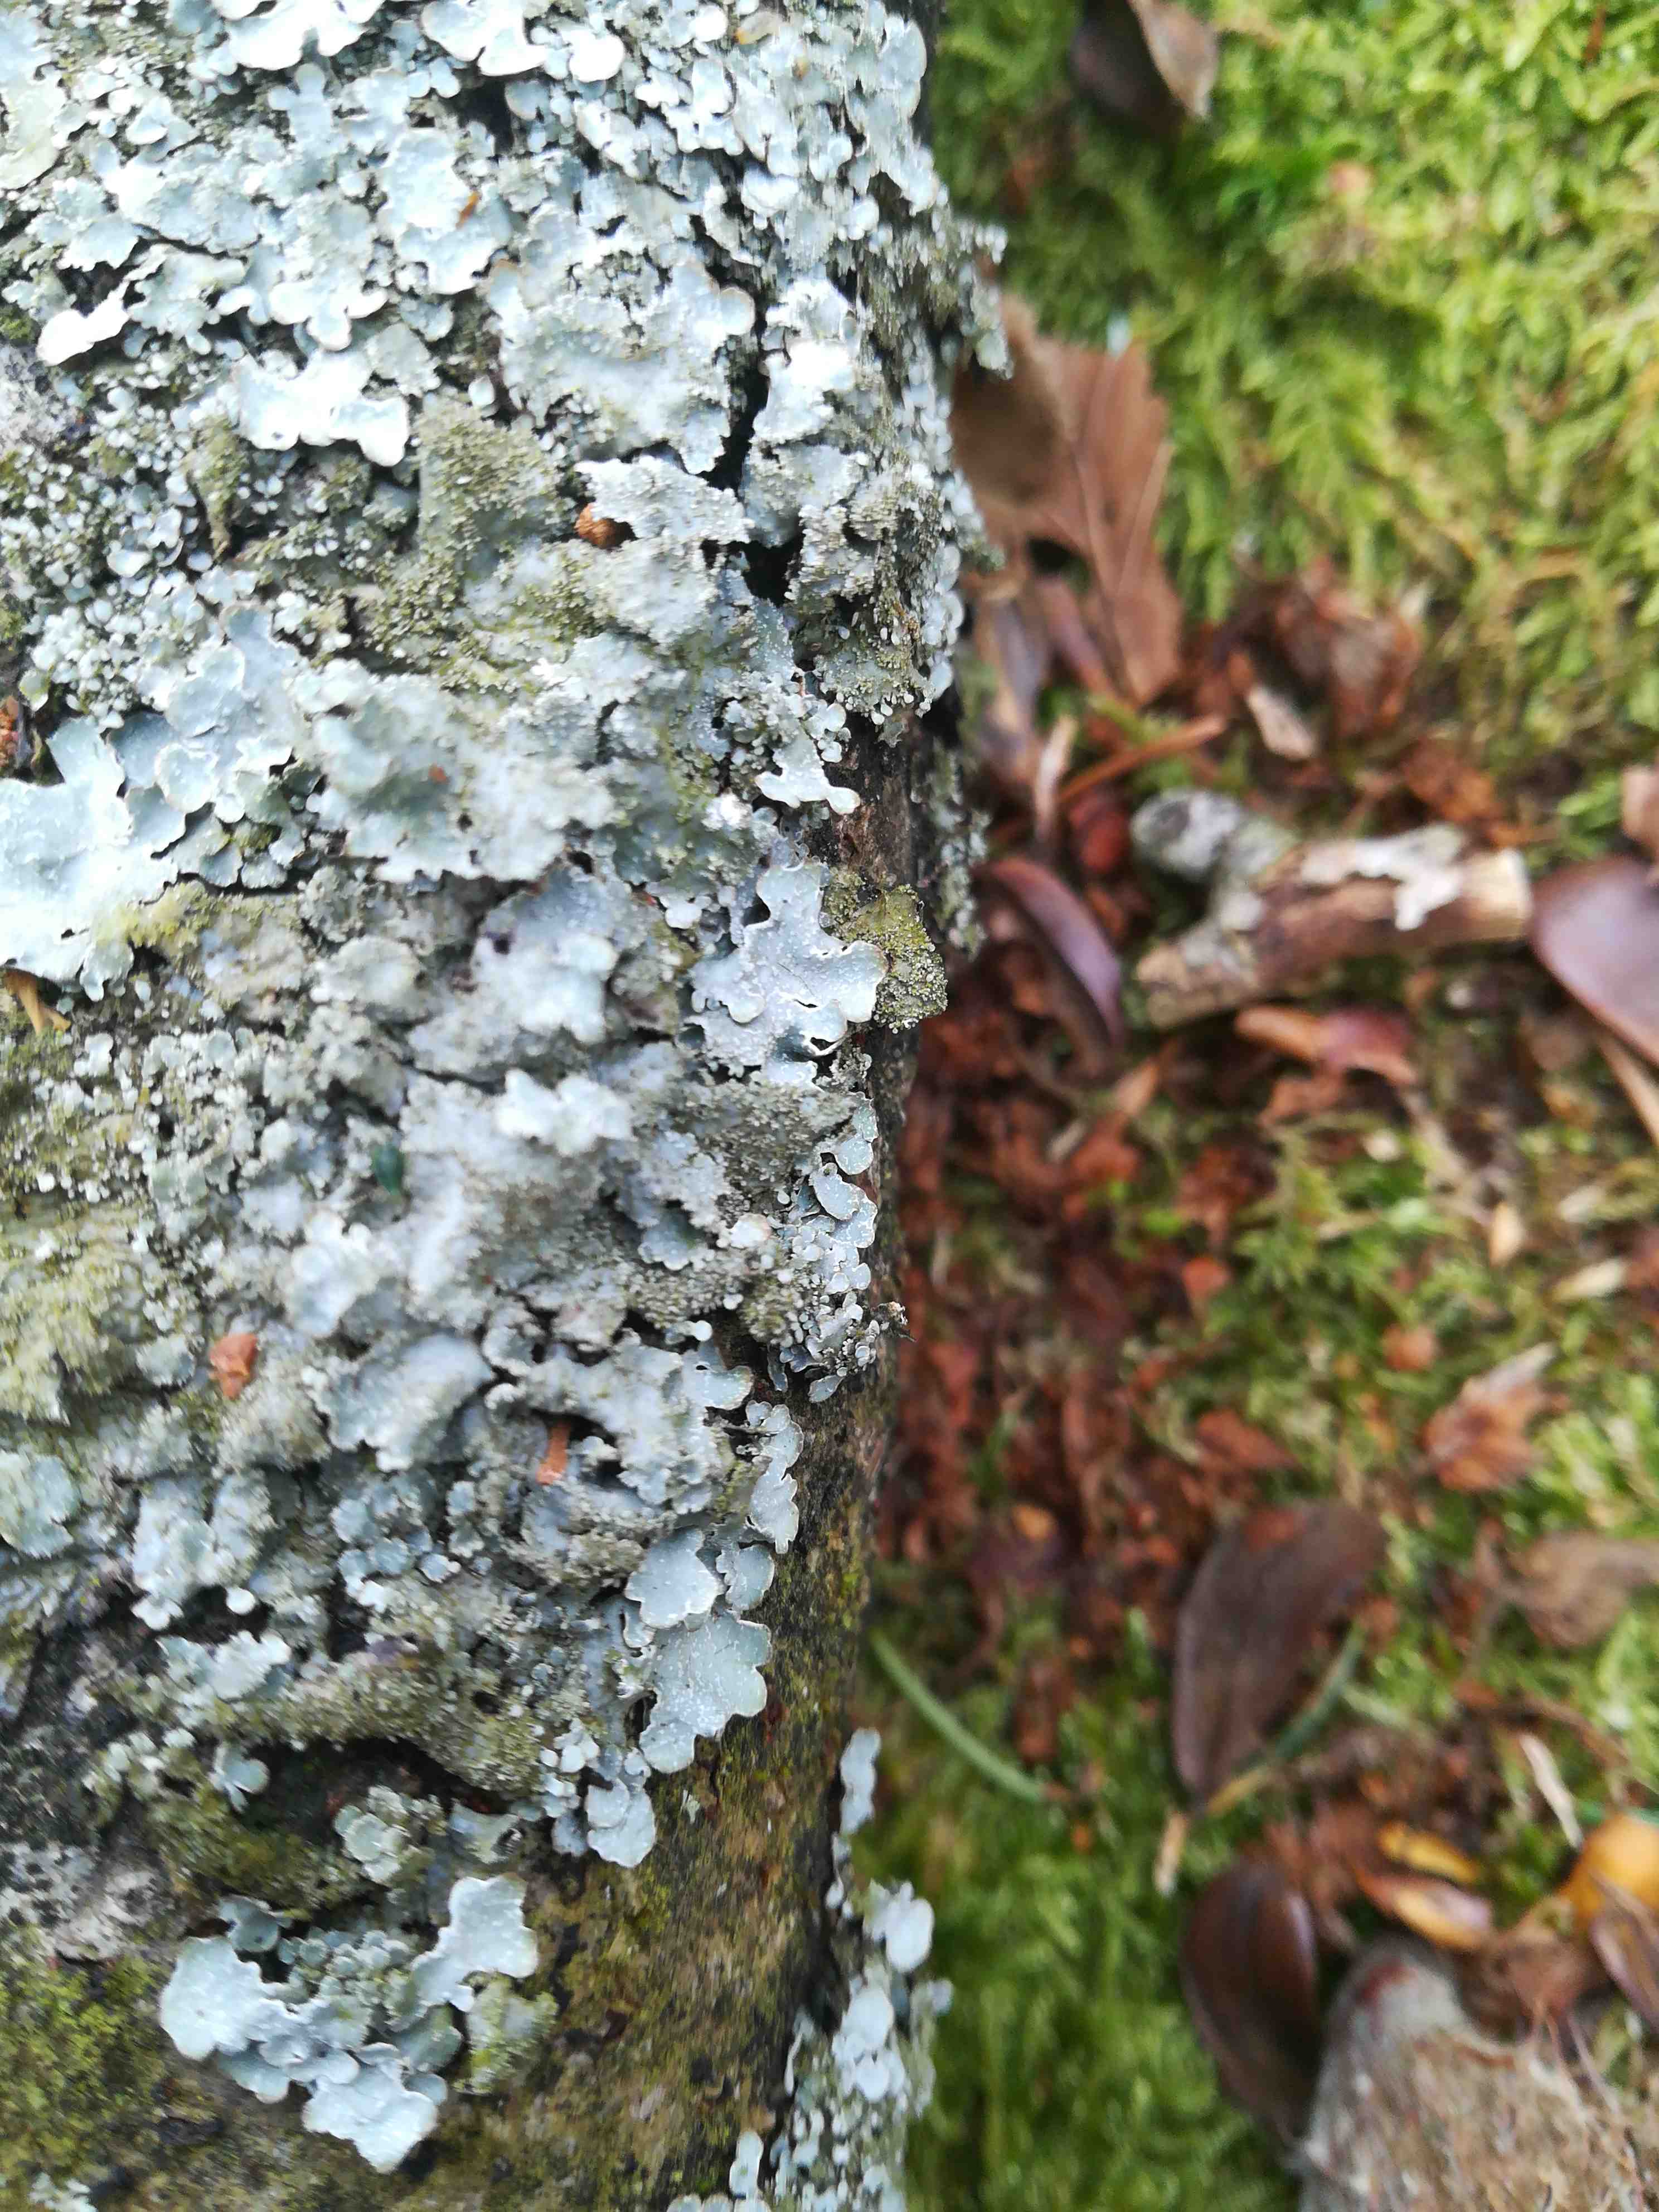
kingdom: Fungi
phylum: Ascomycota
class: Lecanoromycetes
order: Lecanorales
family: Parmeliaceae
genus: Parmelia
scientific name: Parmelia sulcata
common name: rynket skållav
